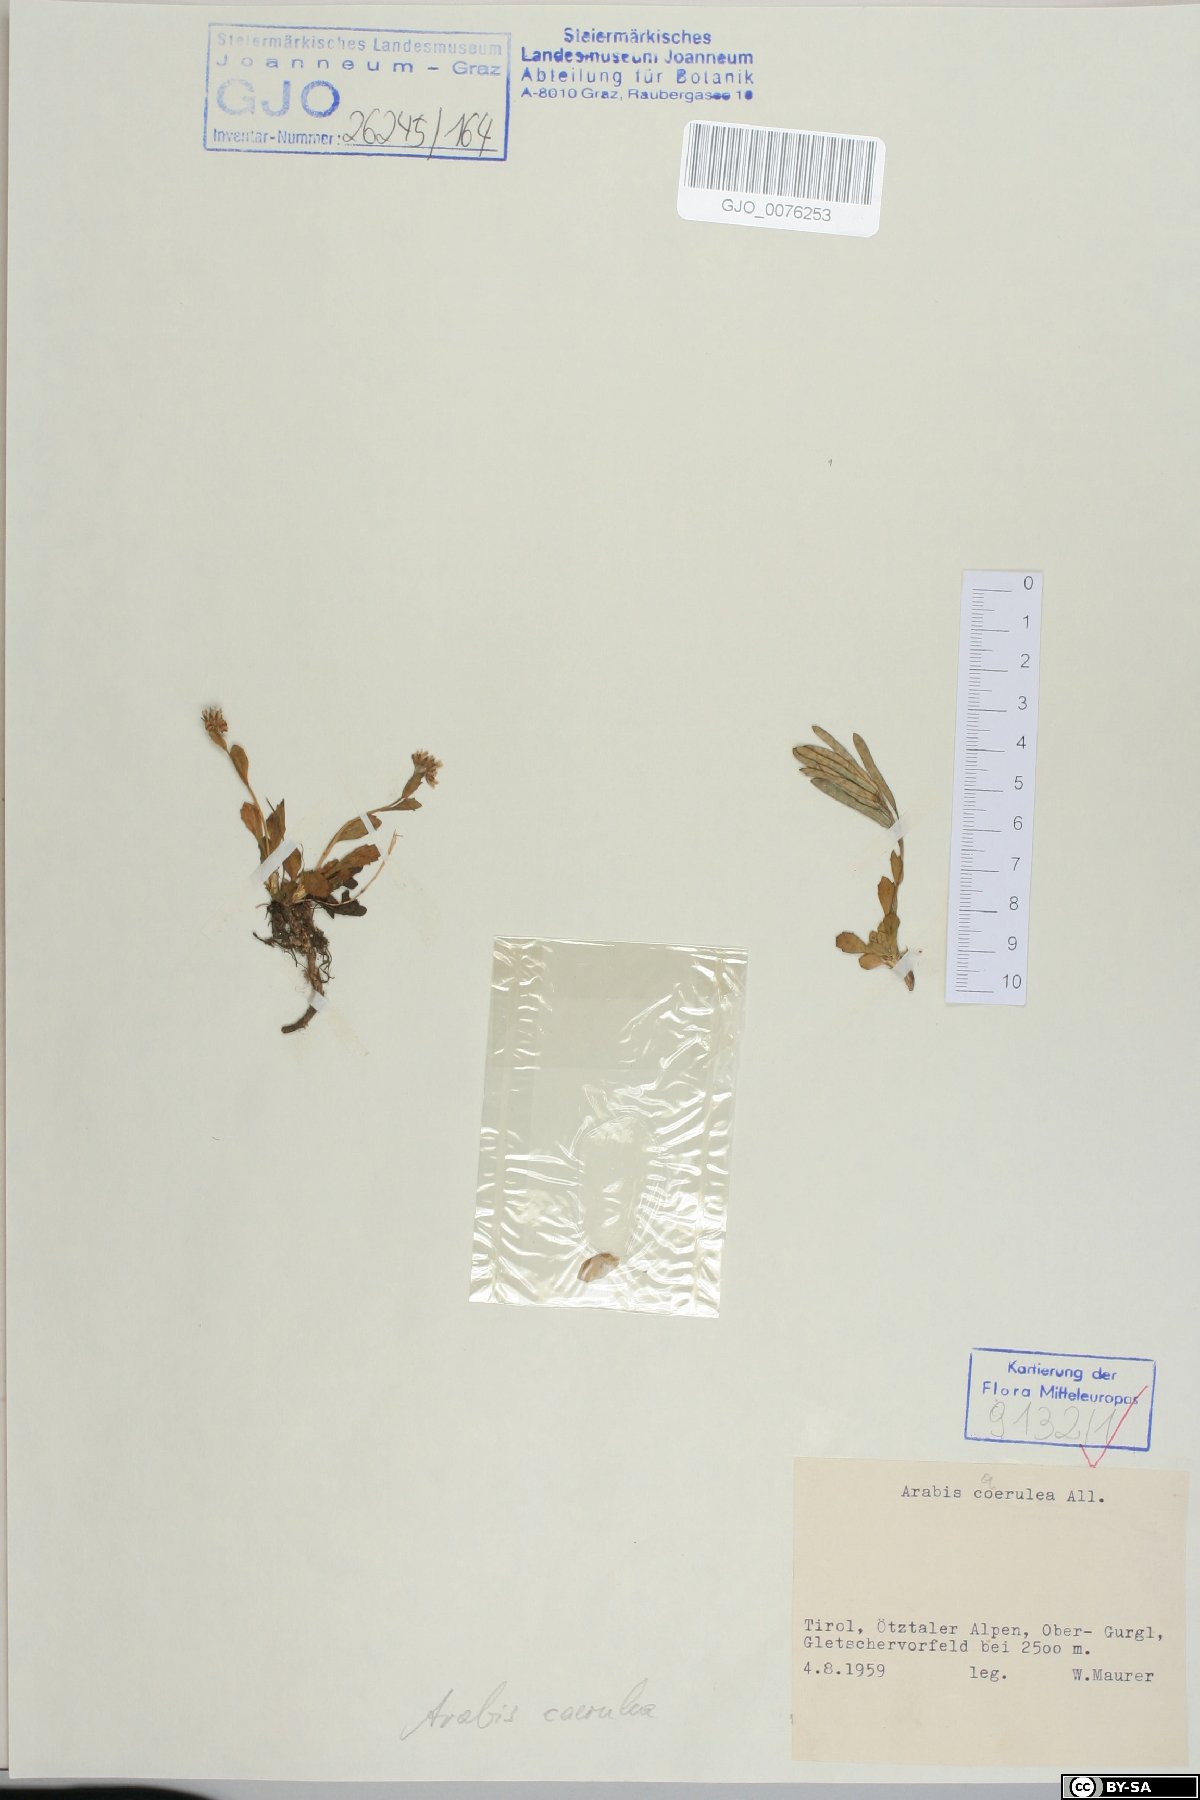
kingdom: Plantae
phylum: Tracheophyta
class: Magnoliopsida
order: Brassicales
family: Brassicaceae
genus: Arabis
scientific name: Arabis caerulea
